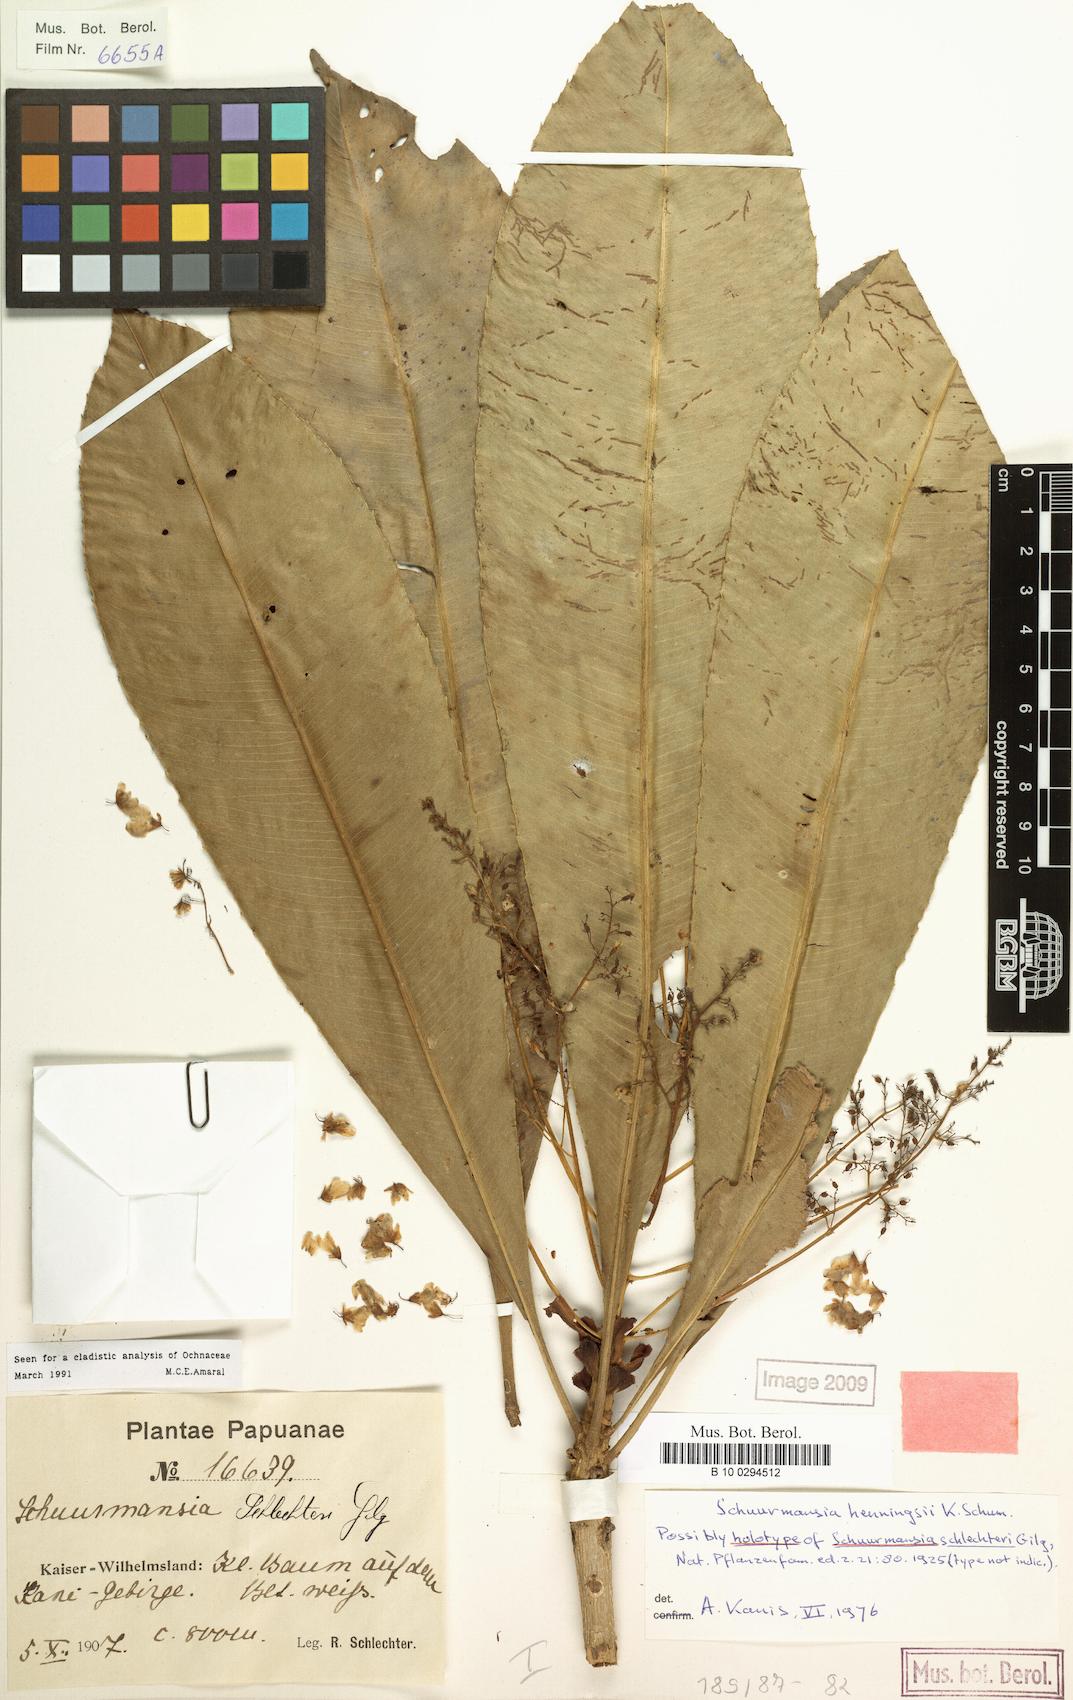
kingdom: Plantae
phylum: Tracheophyta
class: Magnoliopsida
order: Malpighiales
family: Ochnaceae
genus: Schuurmansia
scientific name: Schuurmansia henningsii
